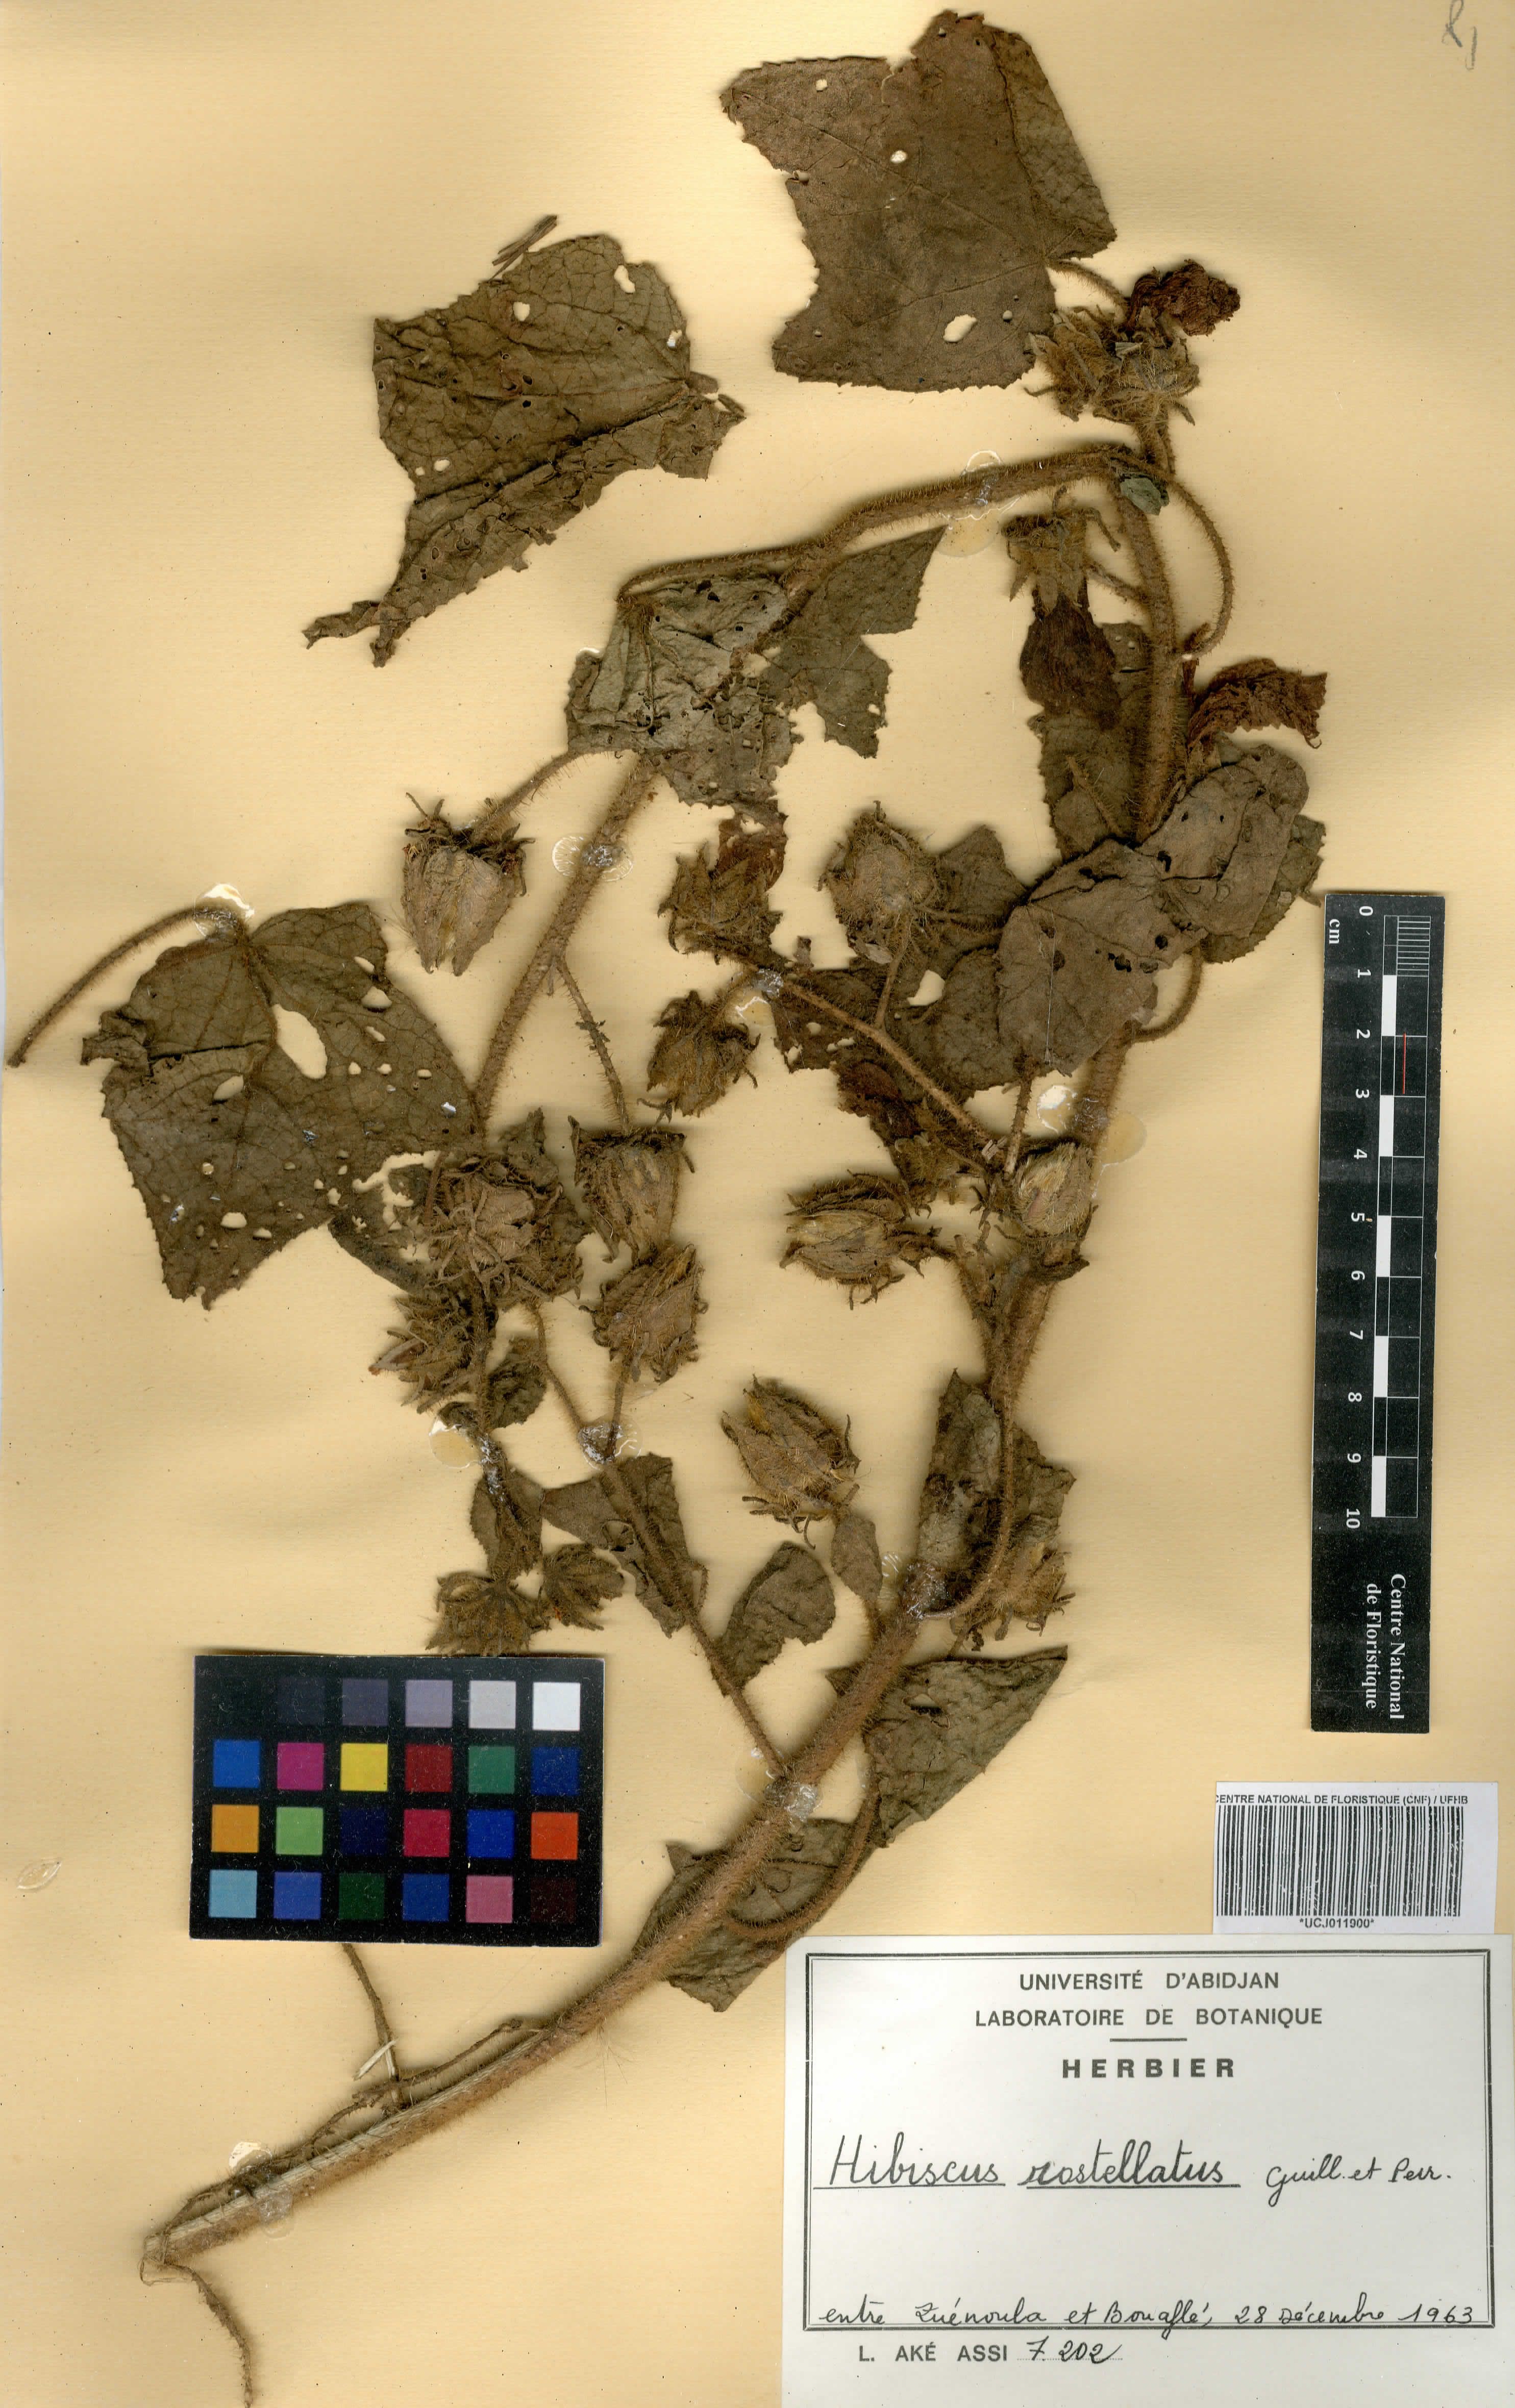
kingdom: Plantae
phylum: Tracheophyta
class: Magnoliopsida
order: Malvales
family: Malvaceae
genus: Hibiscus
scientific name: Hibiscus rostellatus
